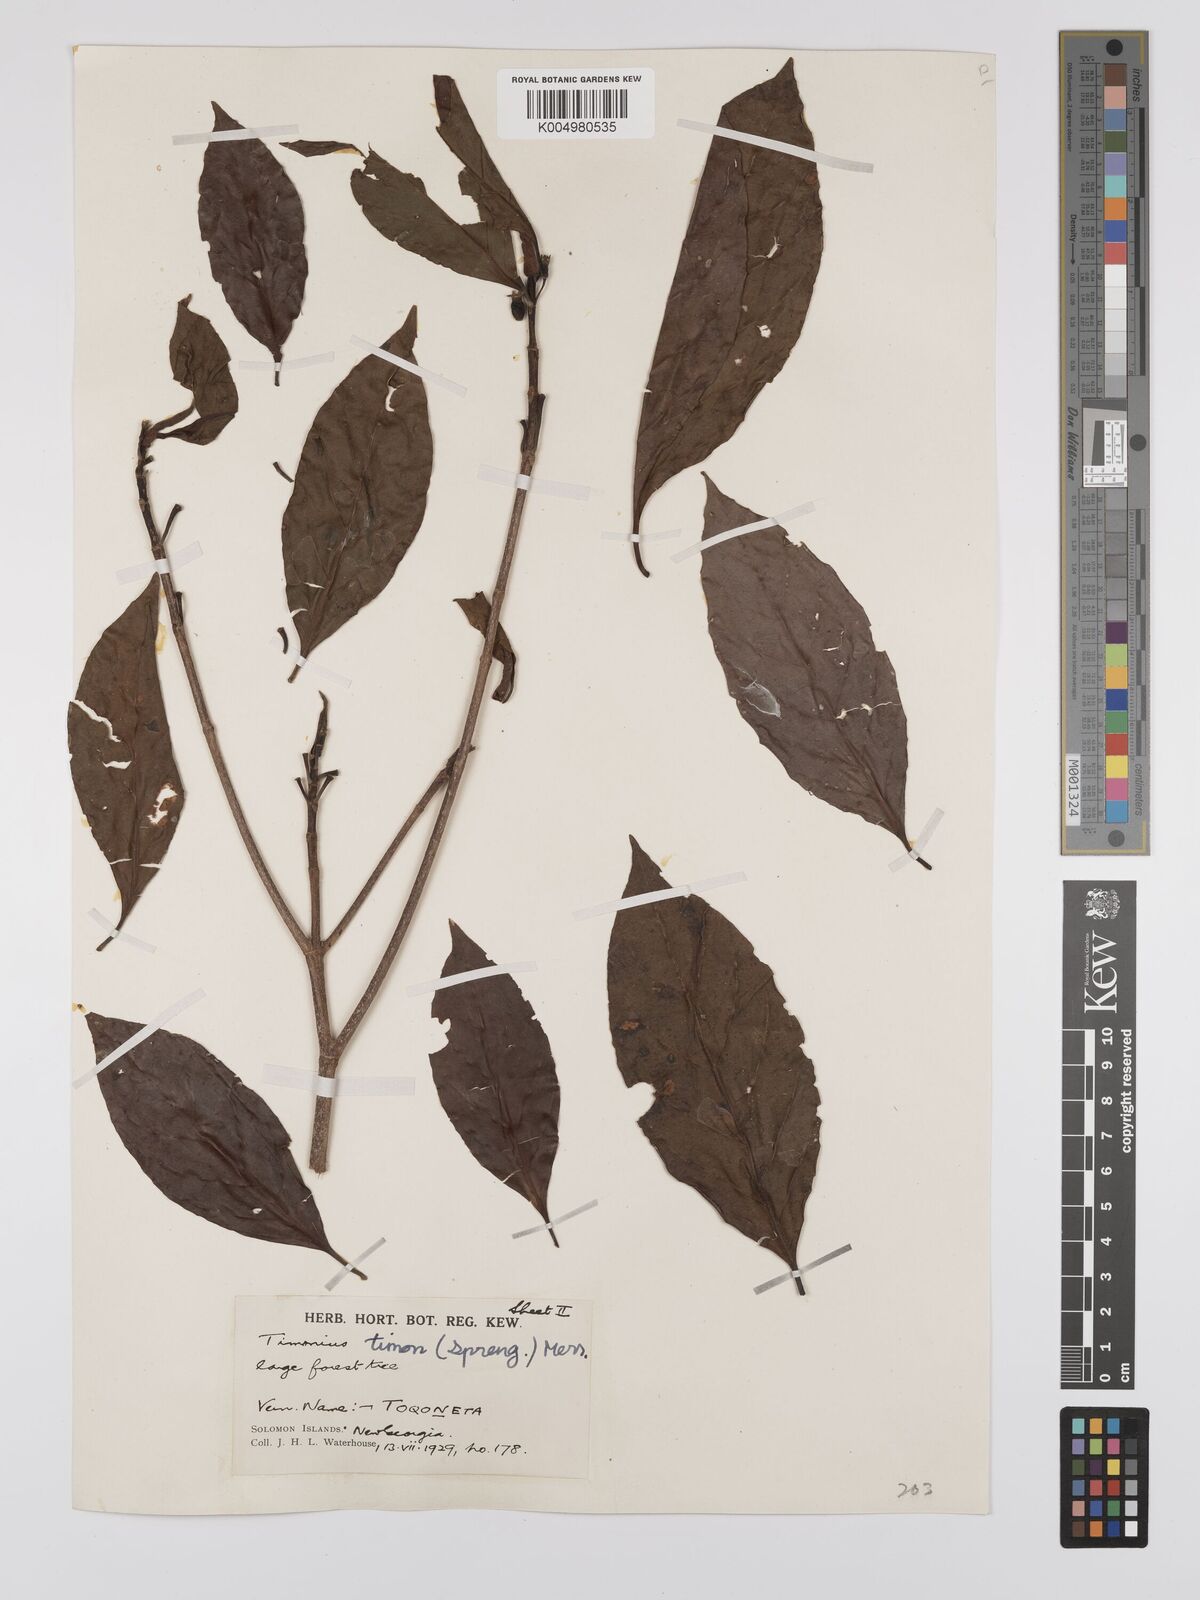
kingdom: Plantae
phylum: Tracheophyta
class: Magnoliopsida
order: Gentianales
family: Rubiaceae
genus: Timonius
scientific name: Timonius timon
